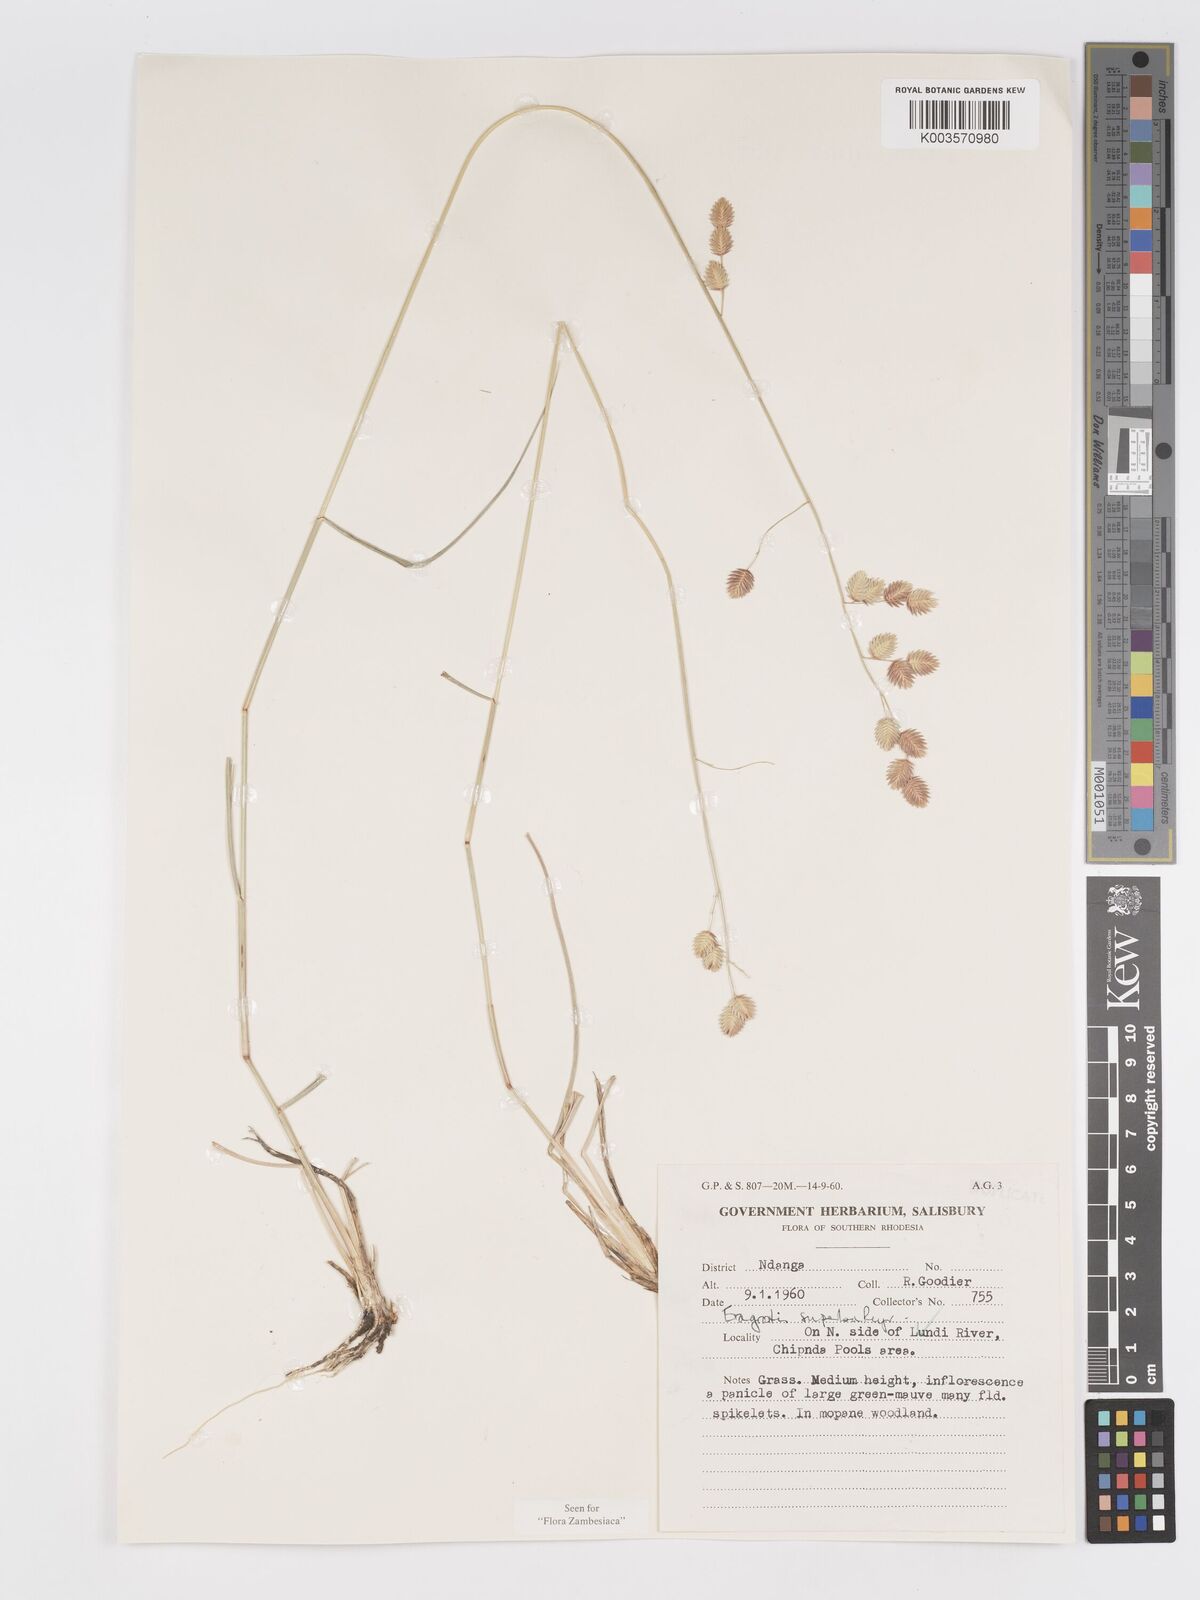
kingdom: Plantae
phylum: Tracheophyta
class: Liliopsida
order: Poales
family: Poaceae
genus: Eragrostis
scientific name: Eragrostis superba
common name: Wilman lovegrass
